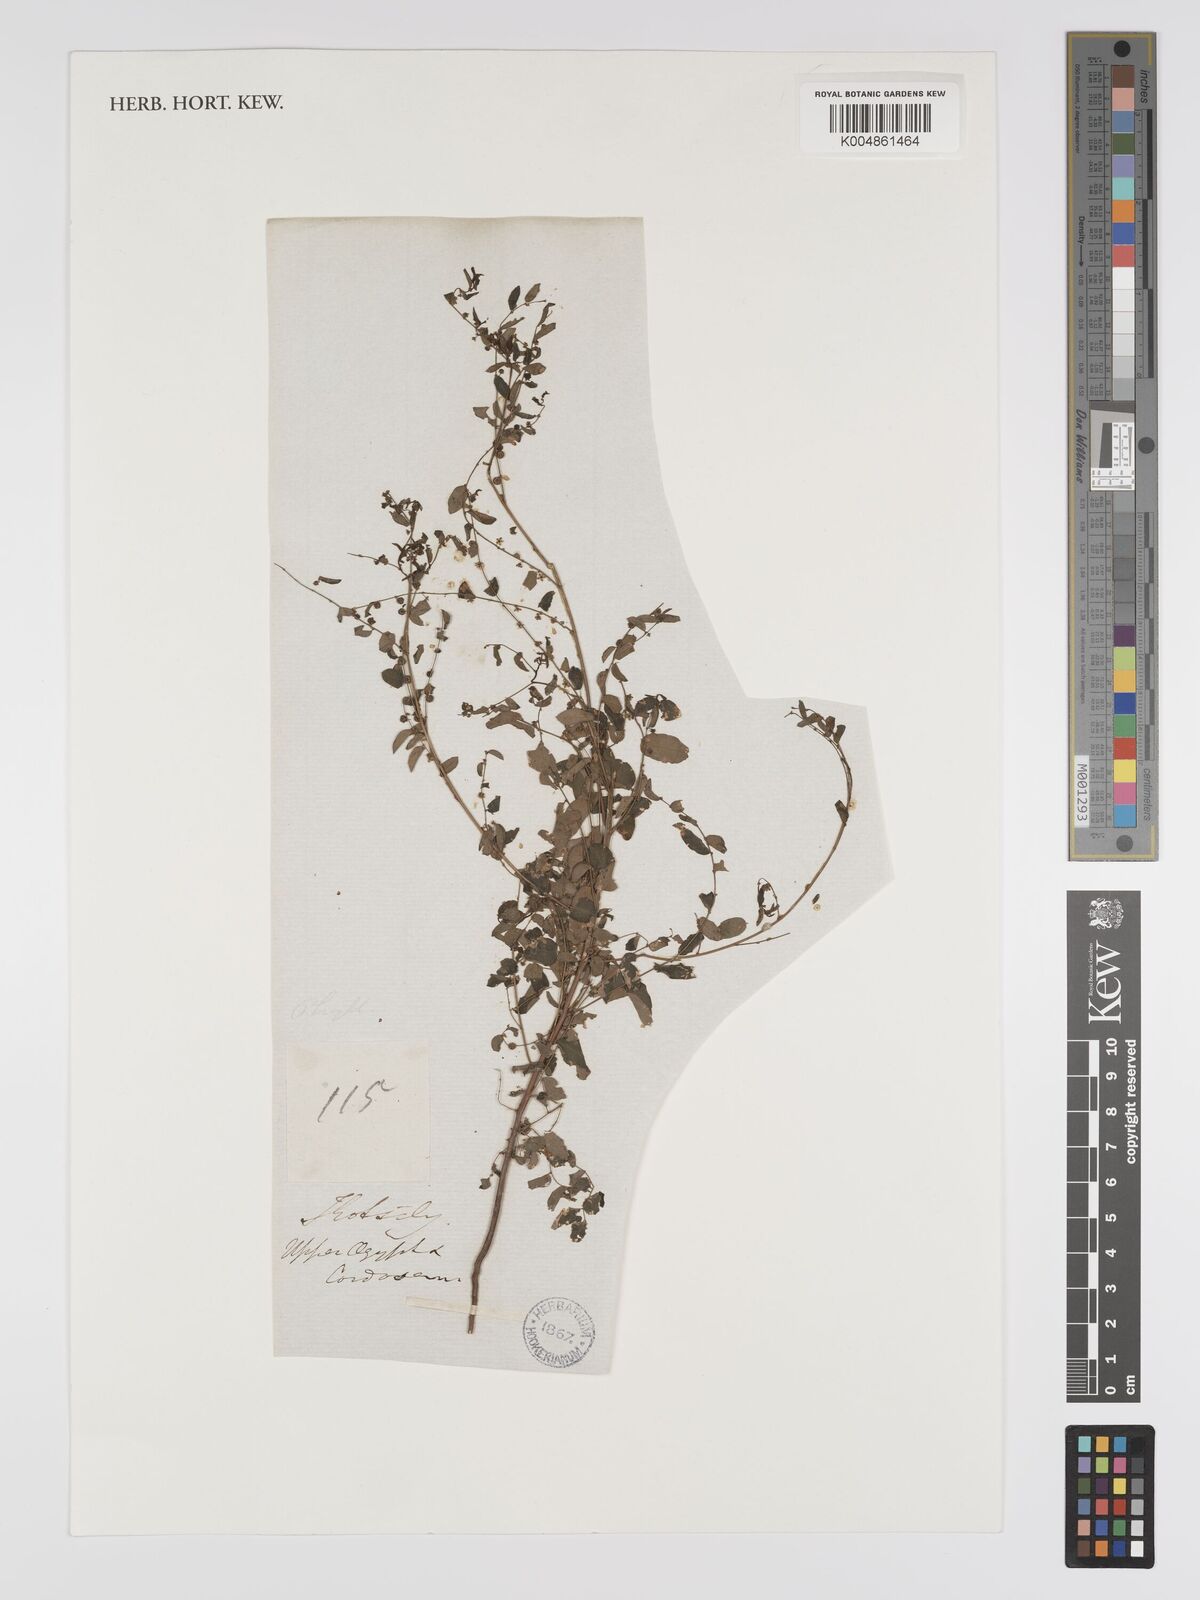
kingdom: Plantae
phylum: Tracheophyta
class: Magnoliopsida
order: Malpighiales
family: Phyllanthaceae
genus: Phyllanthus
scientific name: Phyllanthus fraternus
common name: Gulf leaf-flower
